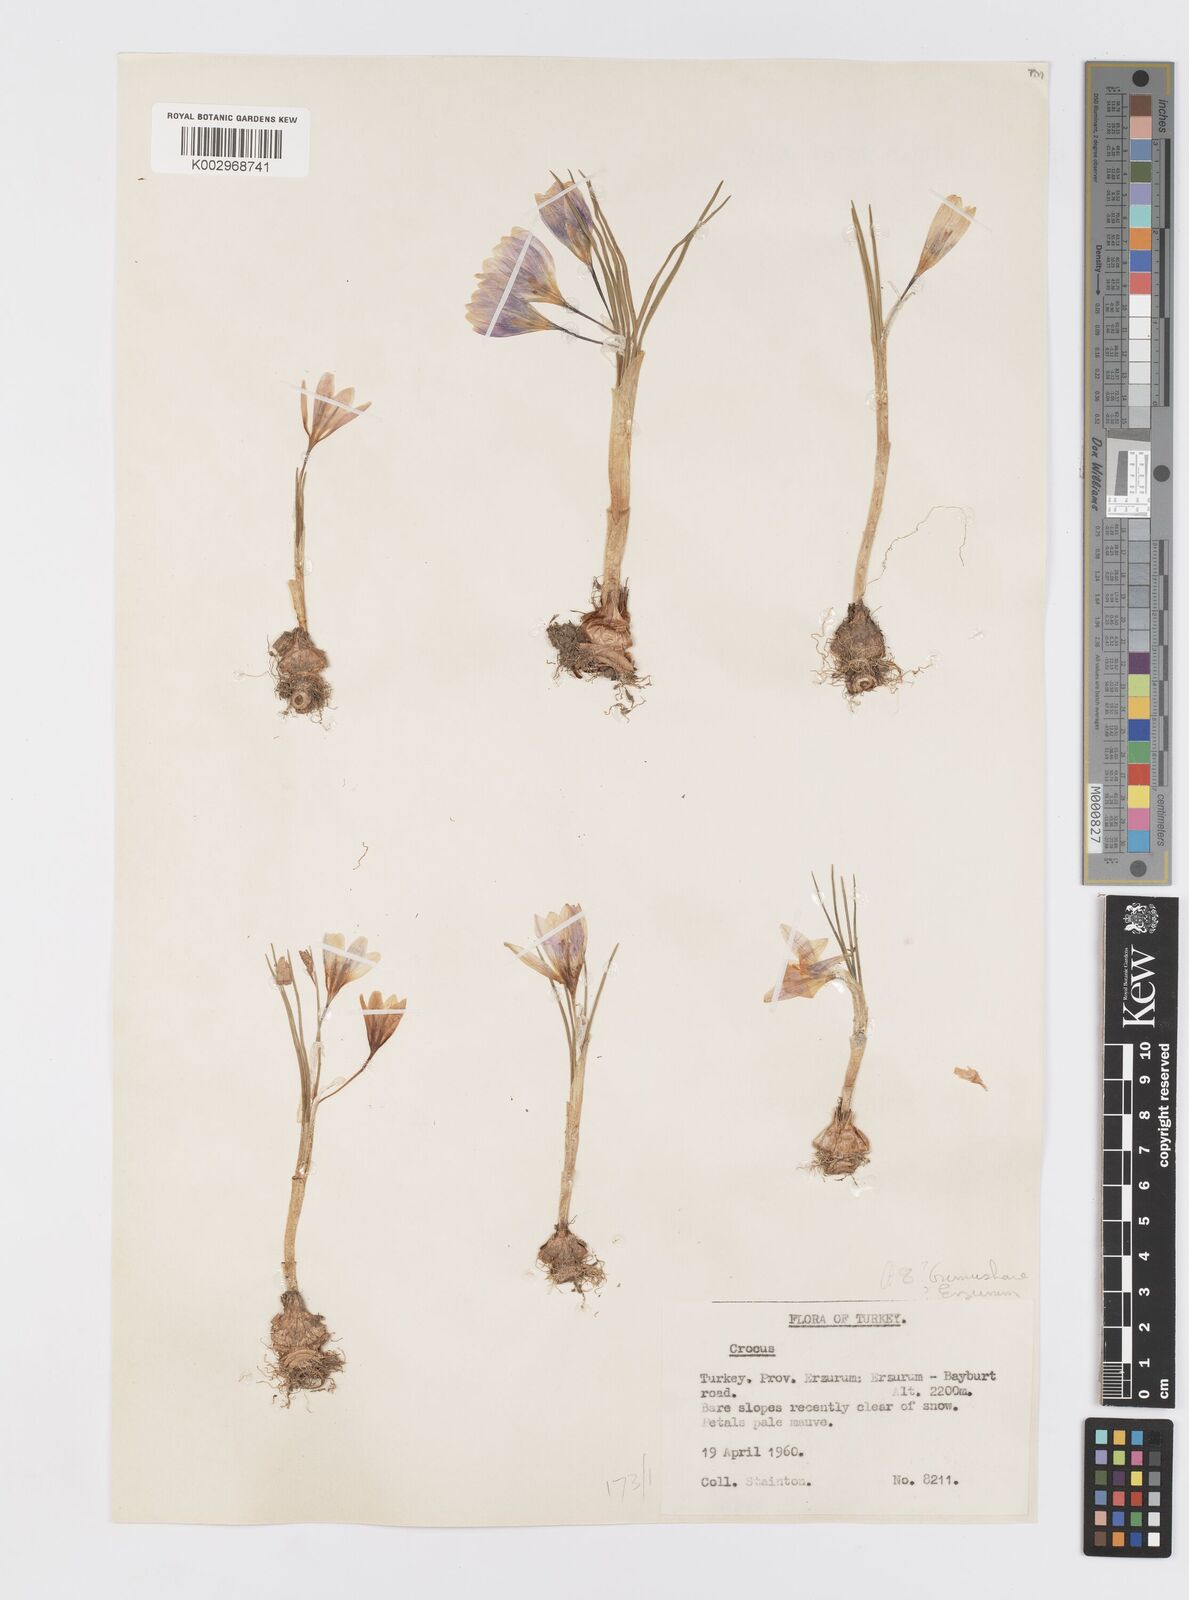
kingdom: Plantae
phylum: Tracheophyta
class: Liliopsida
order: Asparagales
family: Iridaceae
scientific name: Iridaceae
